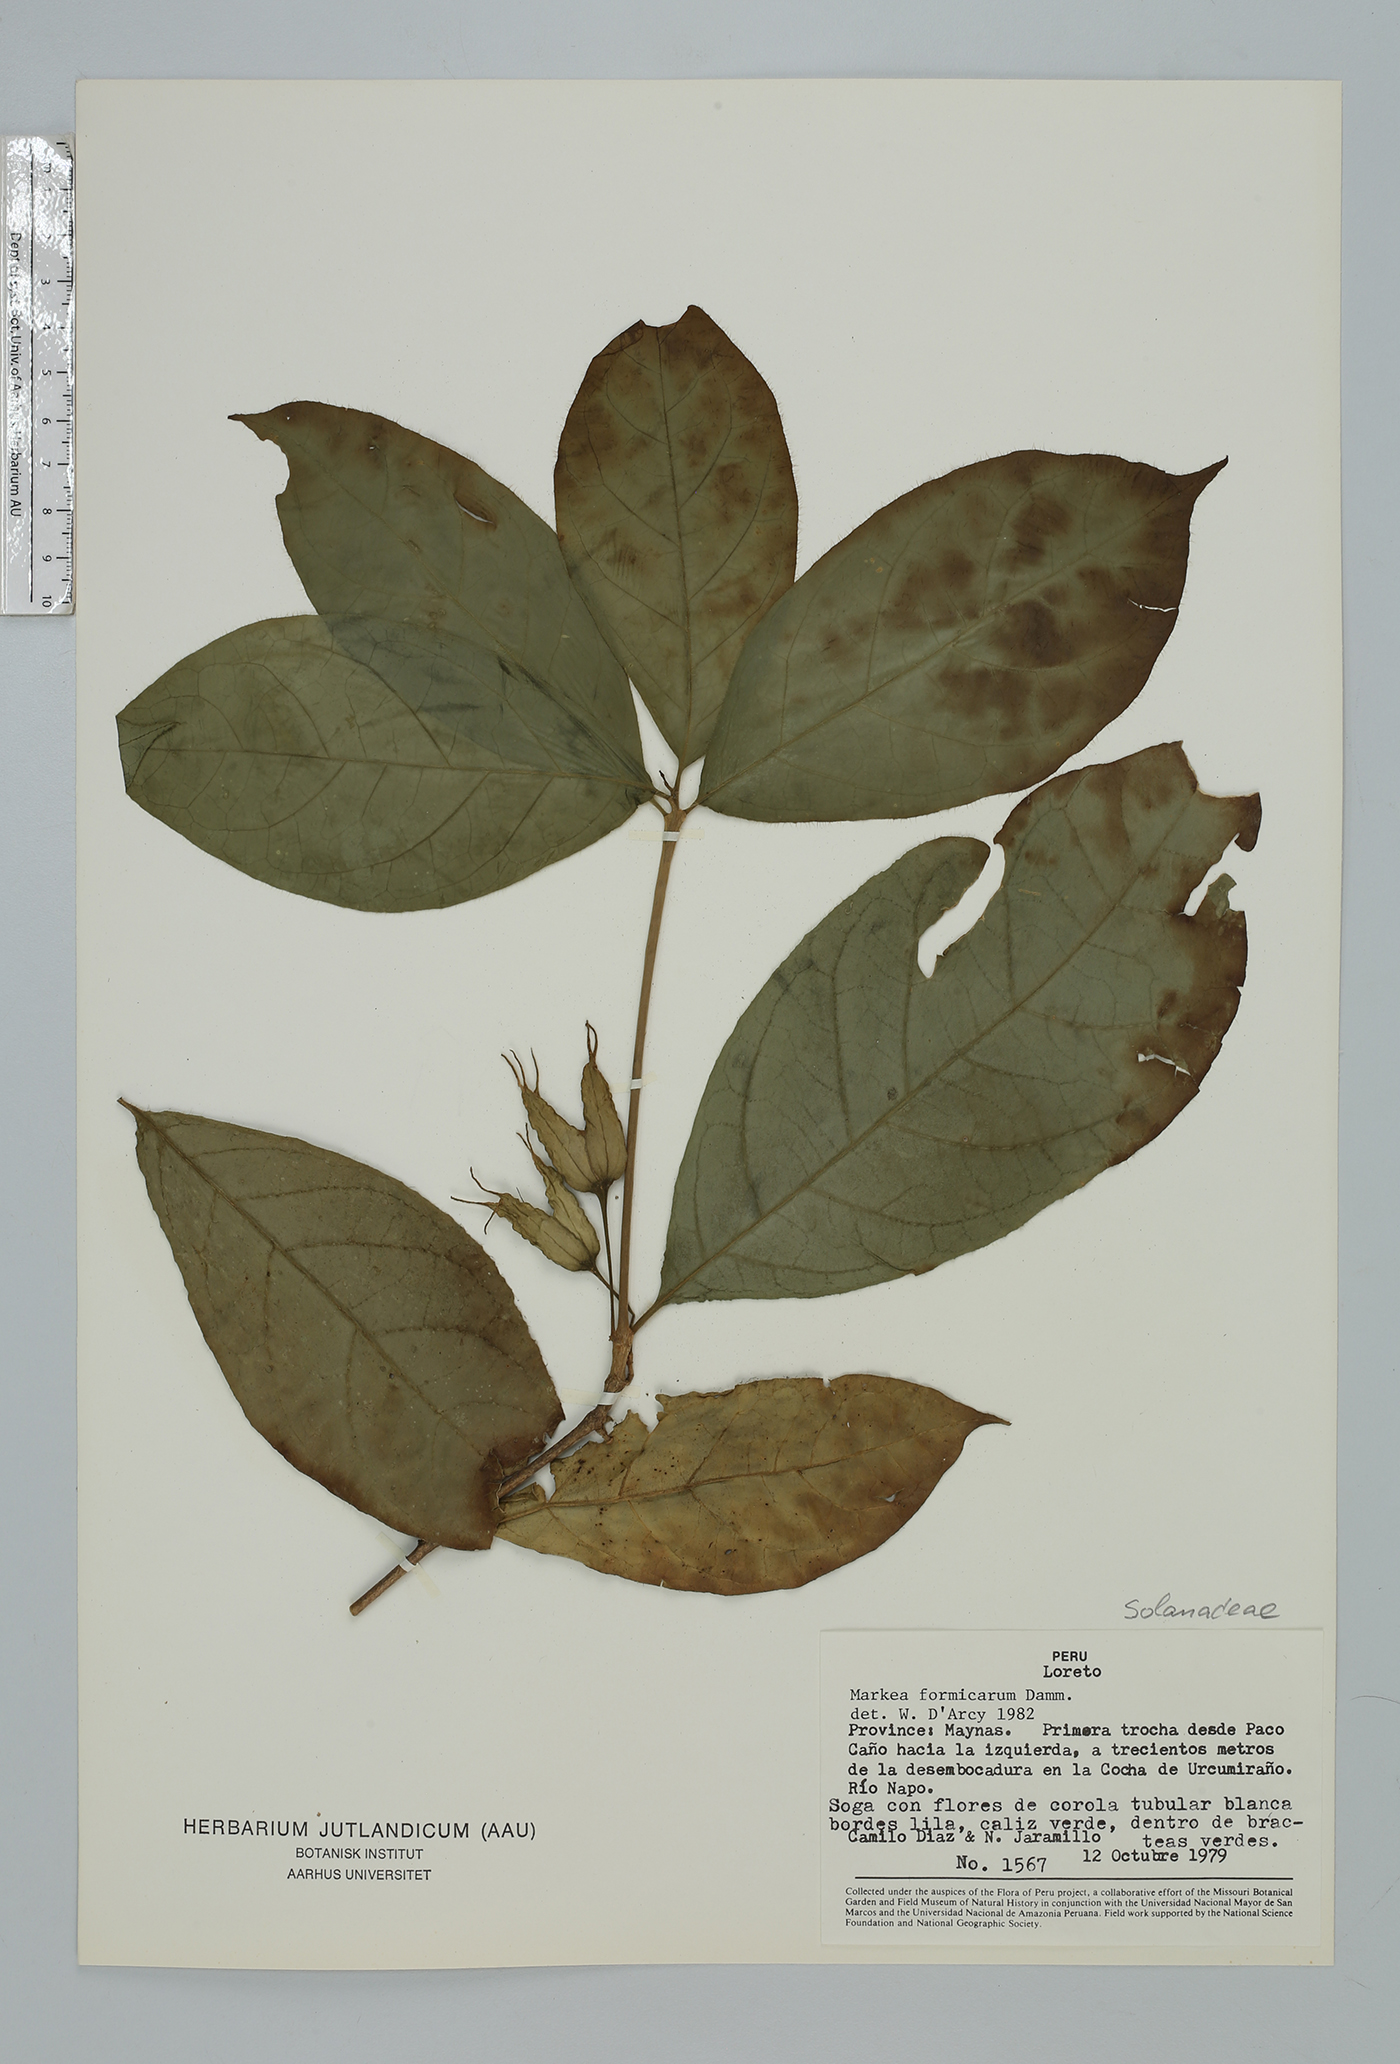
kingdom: Plantae
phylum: Tracheophyta
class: Magnoliopsida
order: Solanales
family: Solanaceae
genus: Markea
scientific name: Markea formicarum
